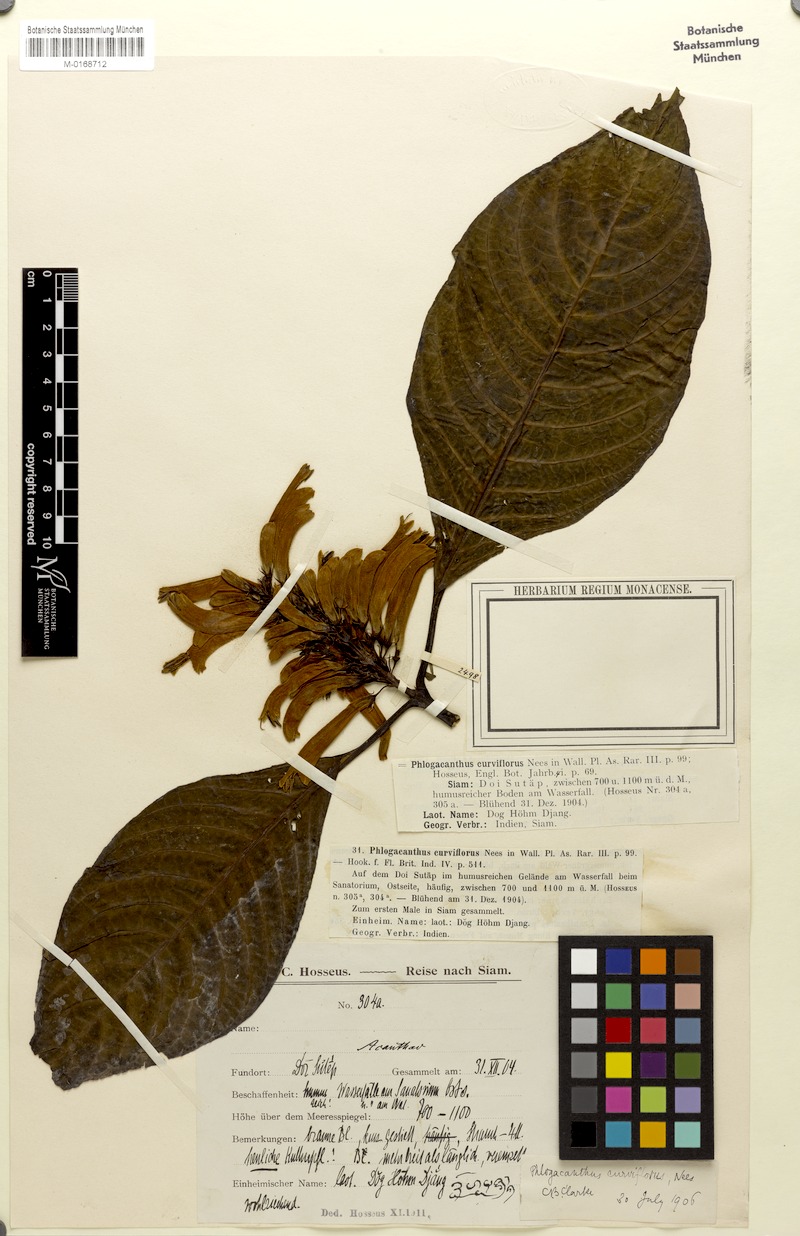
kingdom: Plantae
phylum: Tracheophyta
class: Magnoliopsida
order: Lamiales
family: Acanthaceae
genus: Phlogacanthus
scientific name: Phlogacanthus curviflorus
